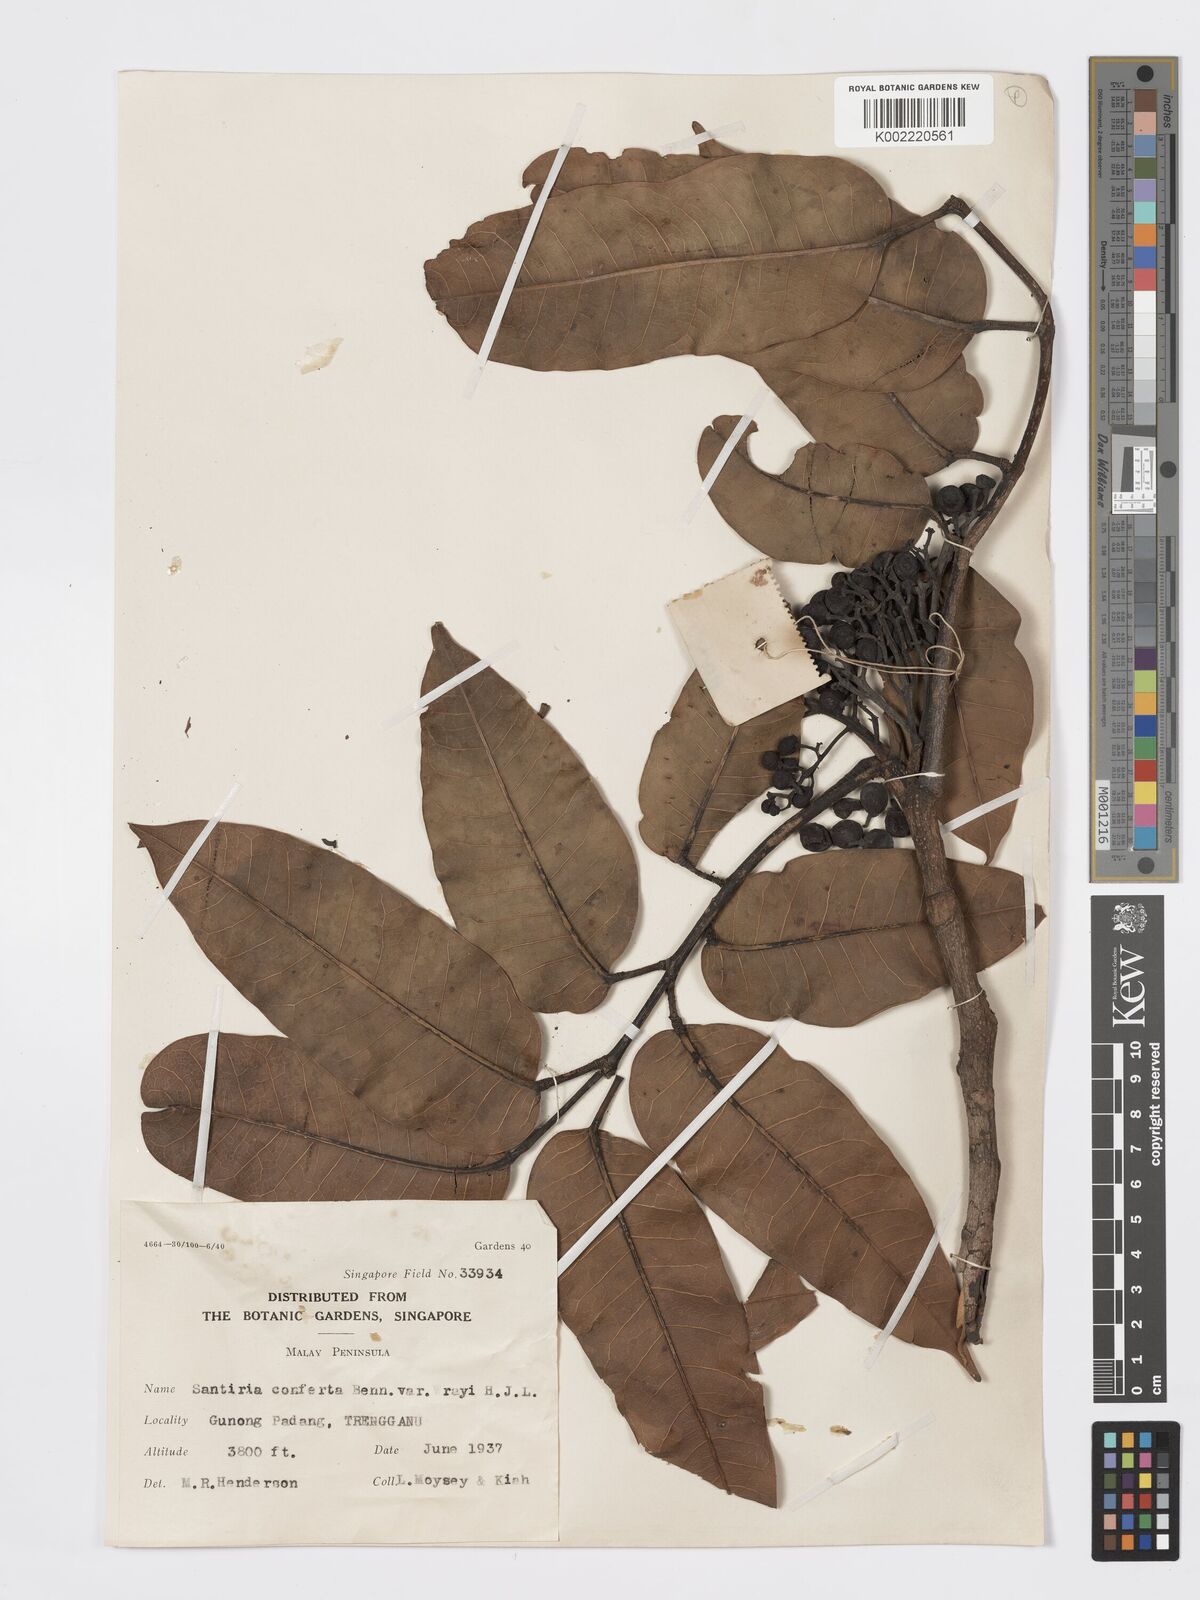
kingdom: Plantae
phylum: Tracheophyta
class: Magnoliopsida
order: Sapindales
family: Burseraceae
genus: Santiria
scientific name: Santiria conferta
